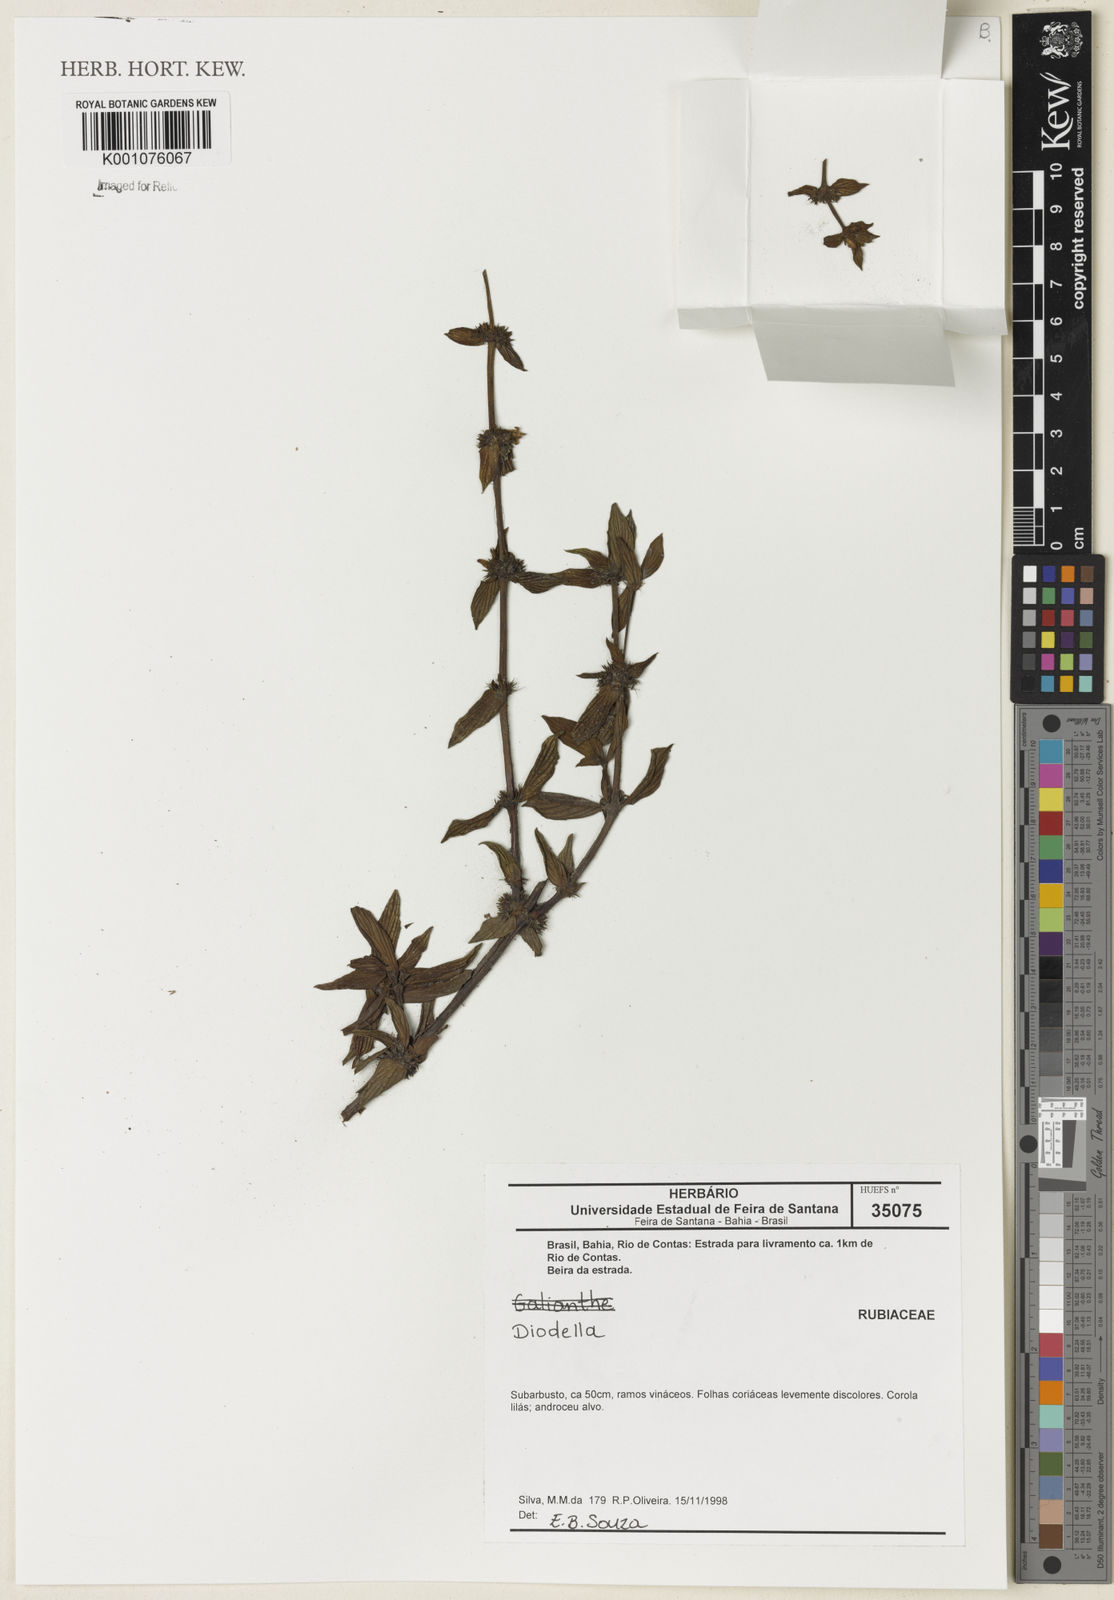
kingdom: Plantae
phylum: Tracheophyta
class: Magnoliopsida
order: Gentianales
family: Rubiaceae
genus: Diodia
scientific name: Diodia
